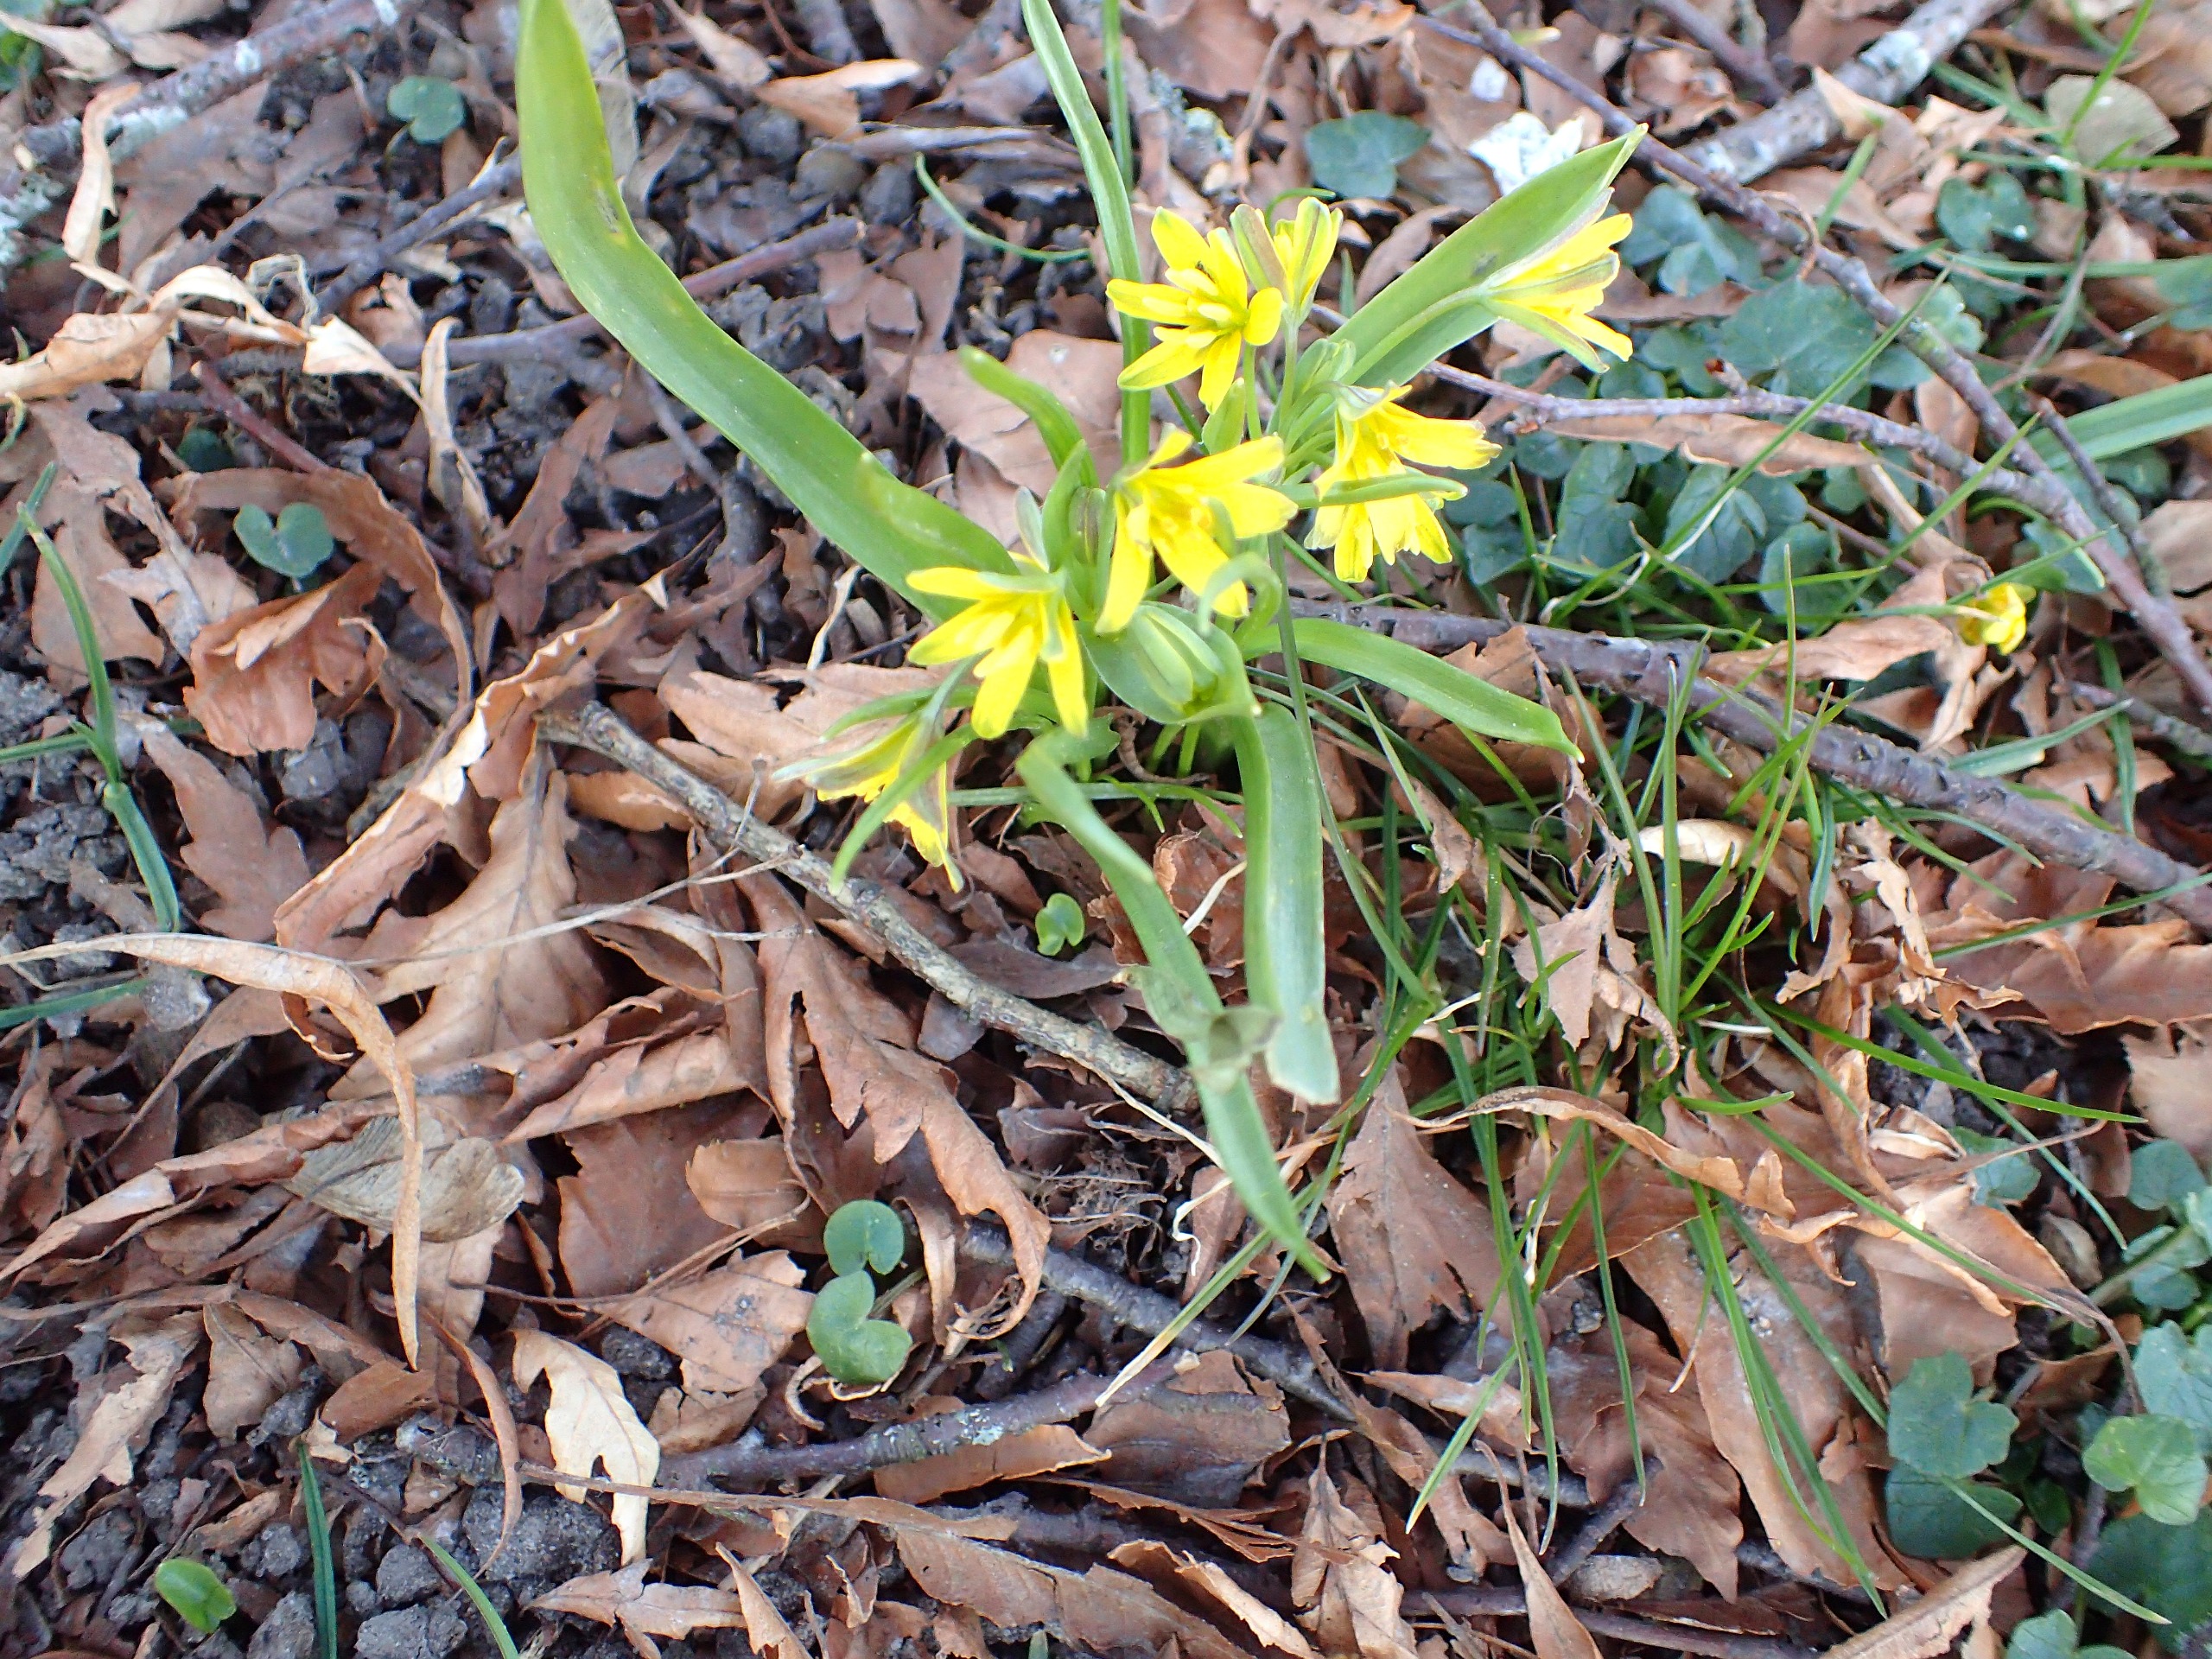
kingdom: Plantae
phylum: Tracheophyta
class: Liliopsida
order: Liliales
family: Liliaceae
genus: Gagea
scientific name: Gagea lutea
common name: Almindelig guldstjerne
